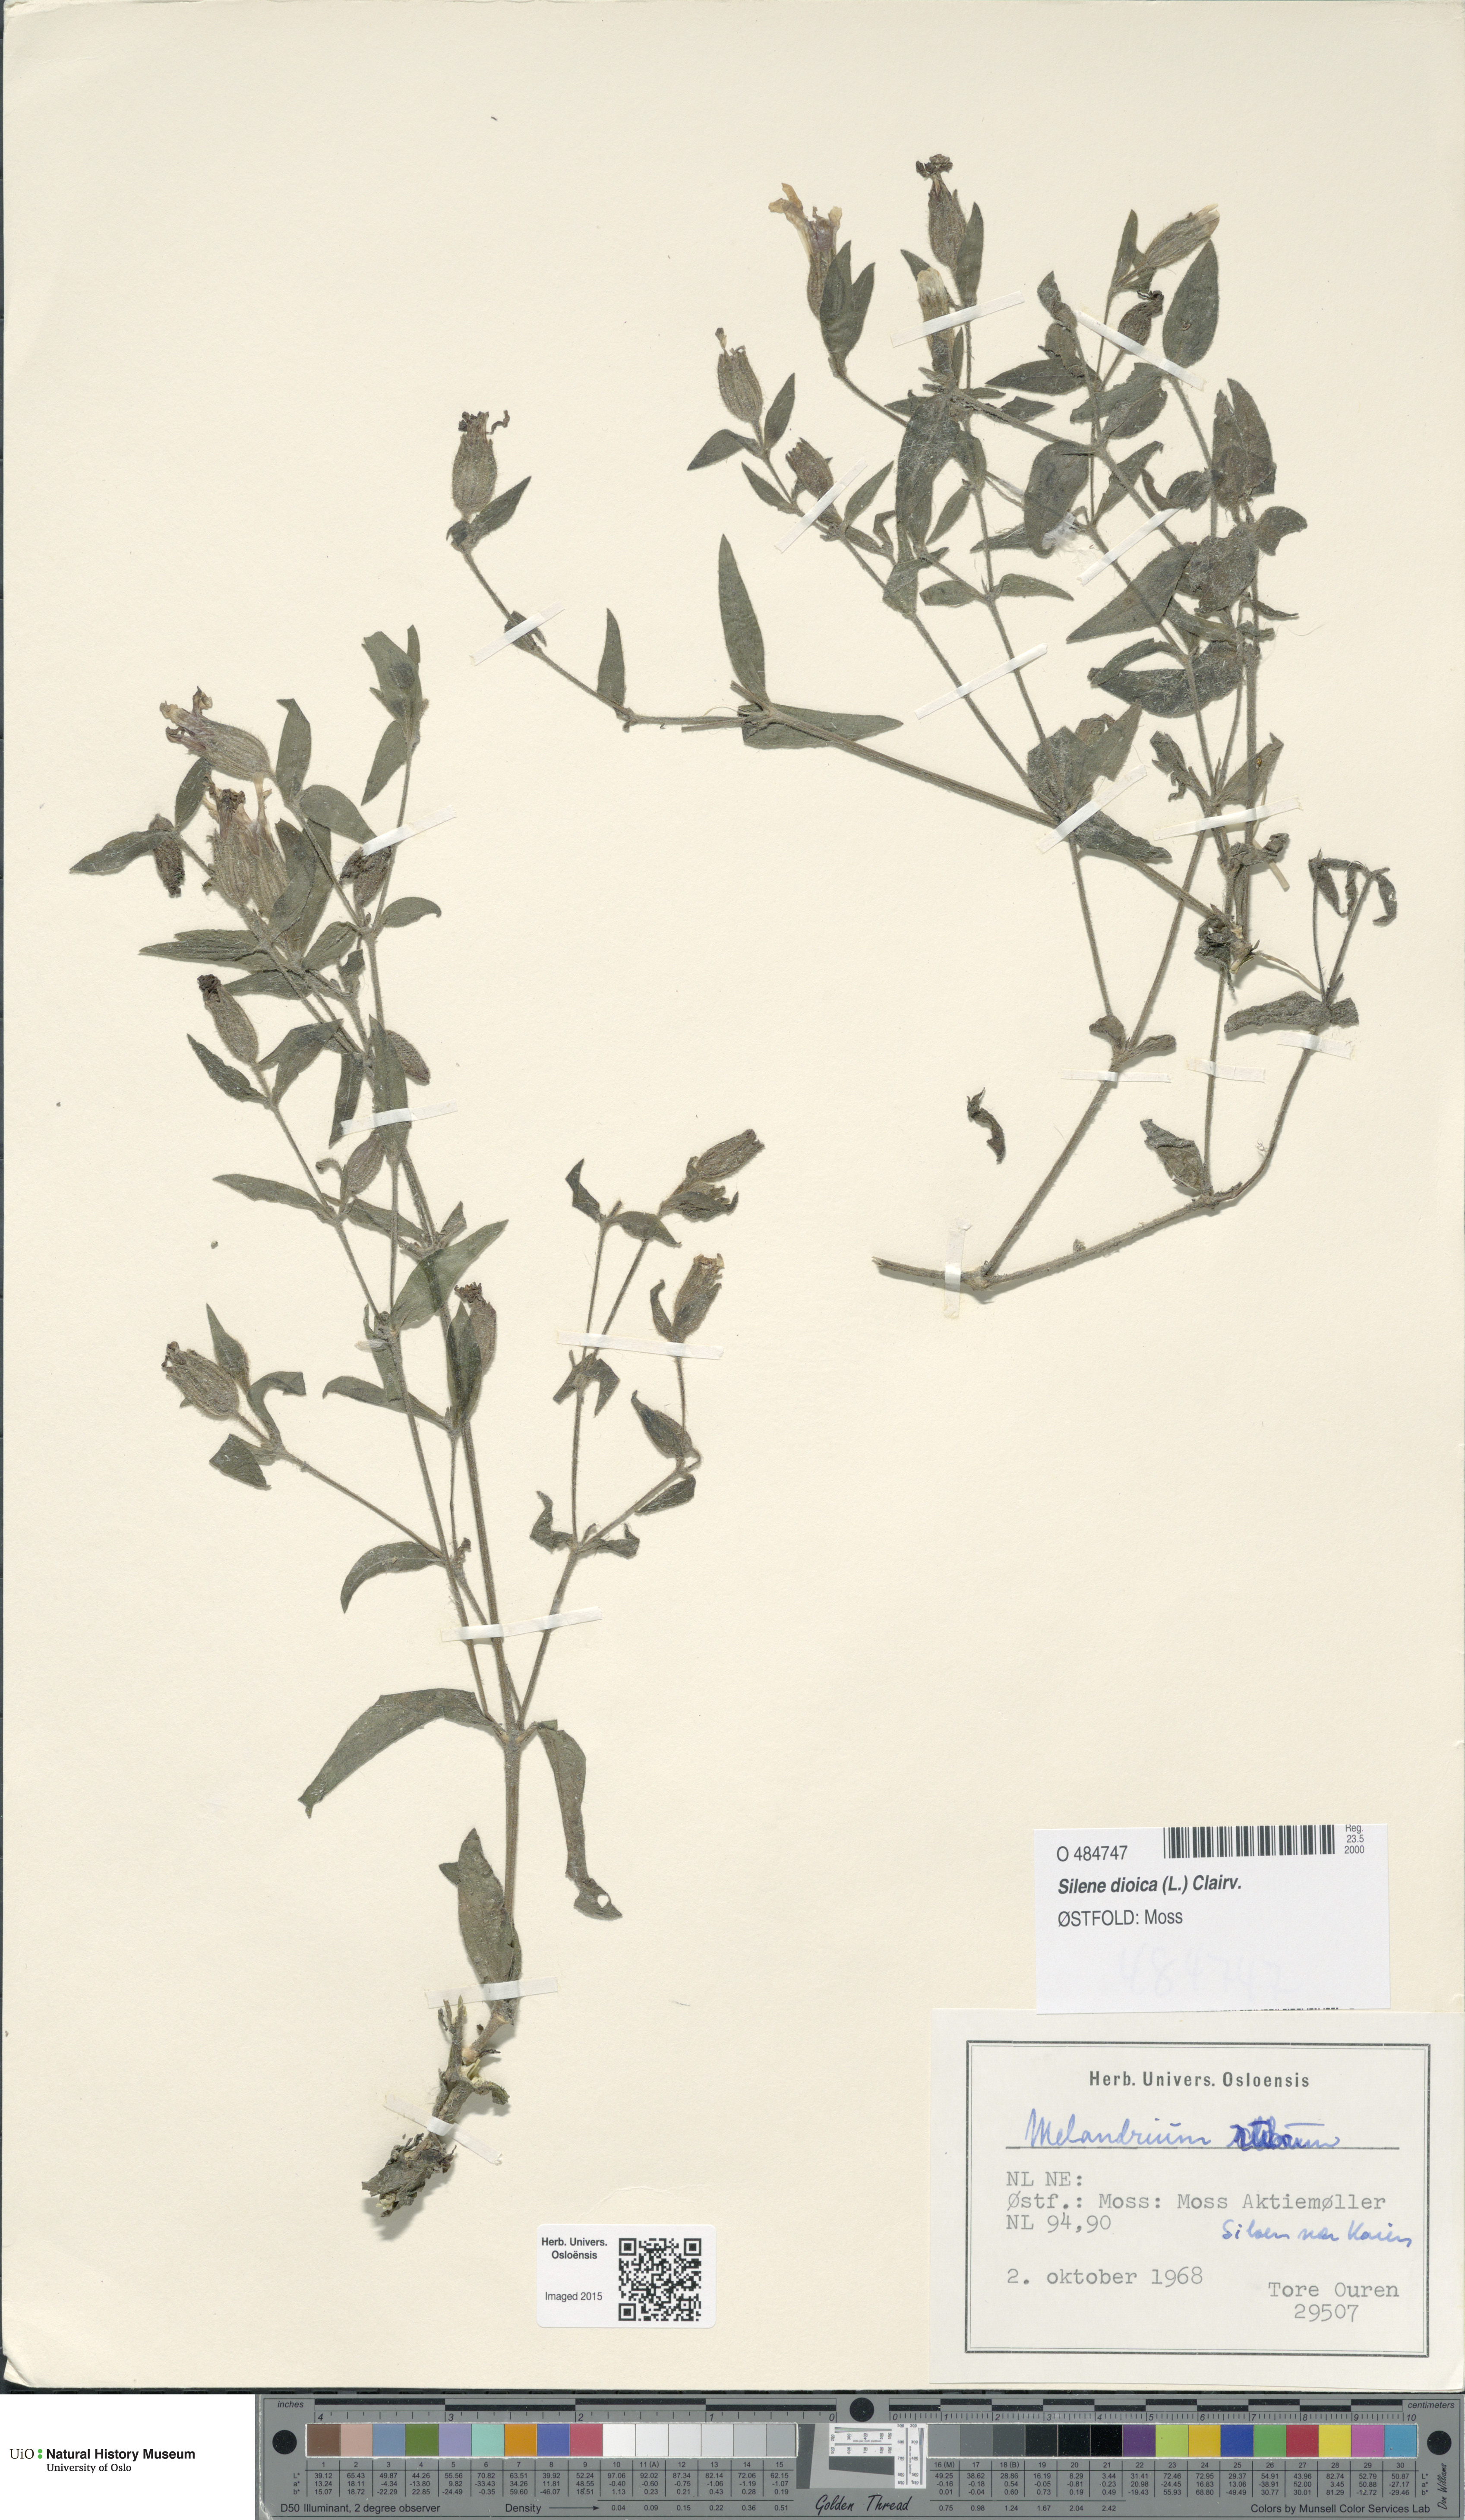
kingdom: Plantae
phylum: Tracheophyta
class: Magnoliopsida
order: Caryophyllales
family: Caryophyllaceae
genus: Silene
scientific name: Silene dioica
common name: Red campion
